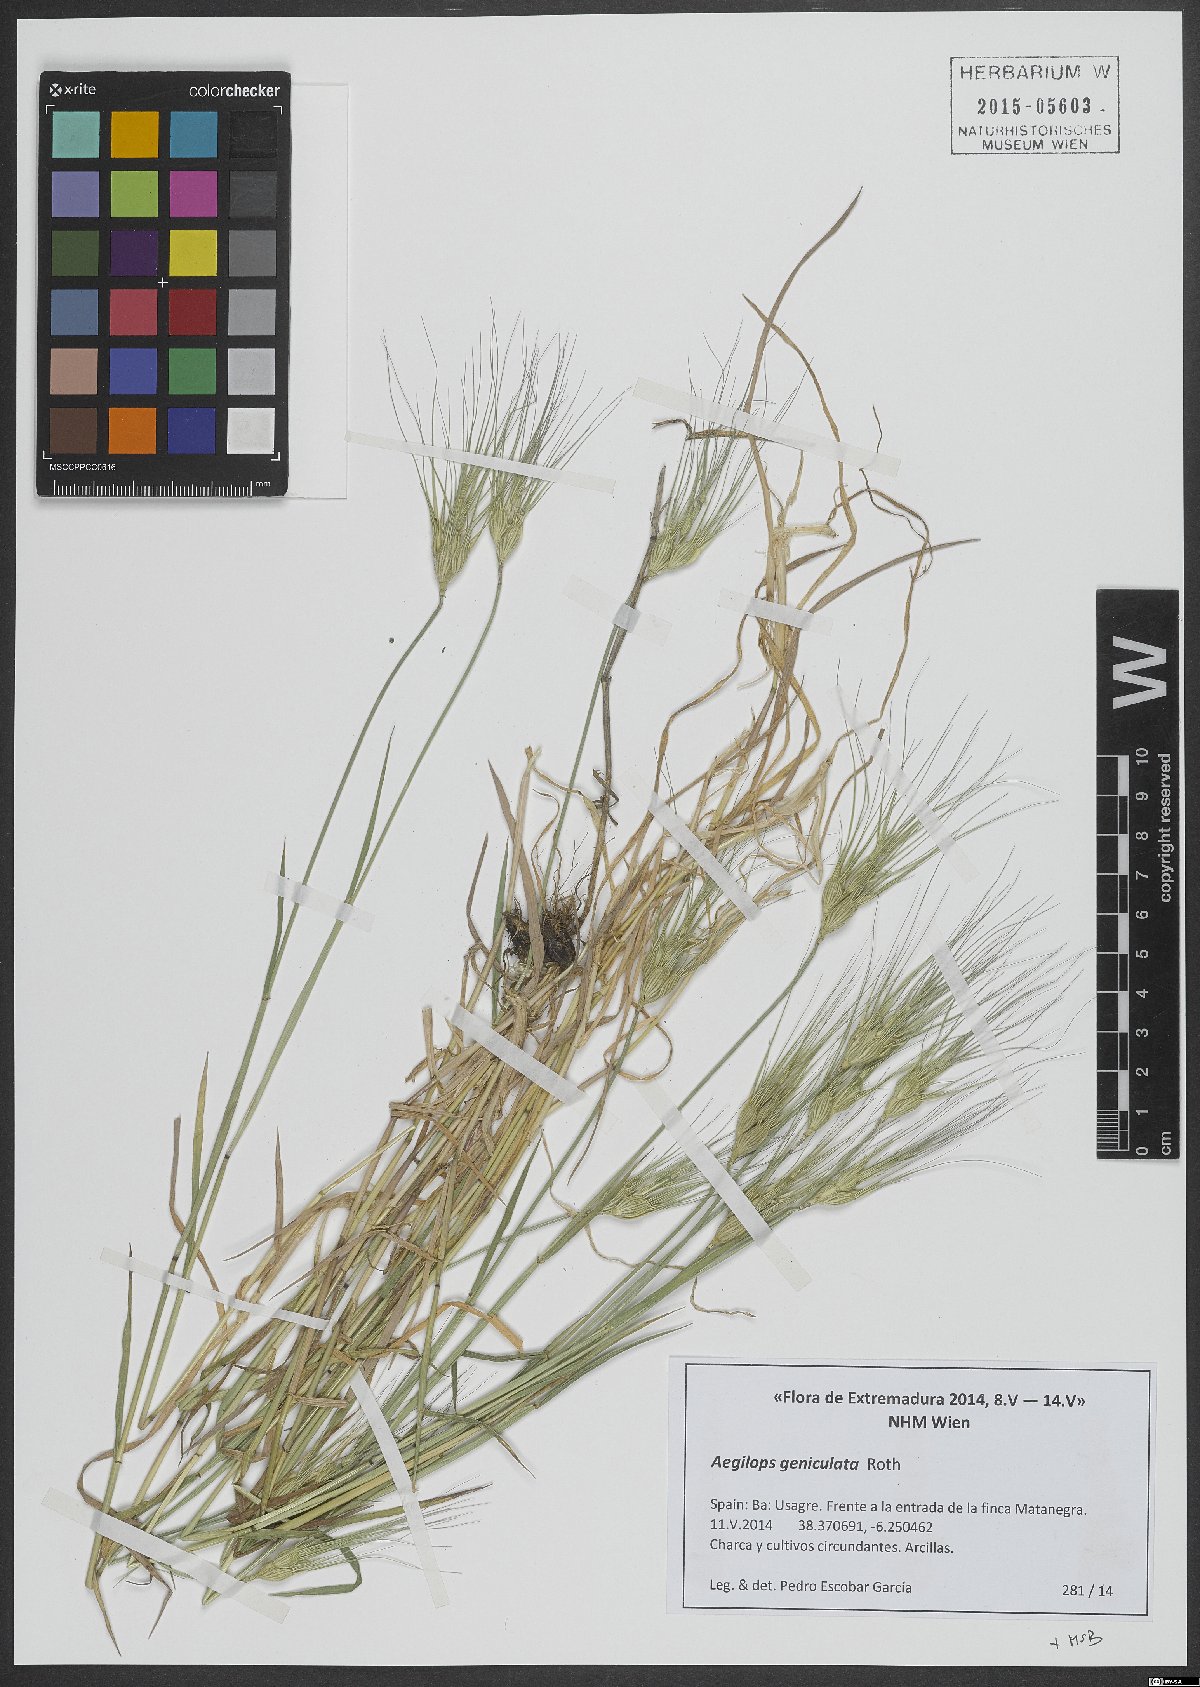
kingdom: Plantae
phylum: Tracheophyta
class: Liliopsida
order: Poales
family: Poaceae
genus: Aegilops
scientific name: Aegilops geniculata
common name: Ovate goat grass
